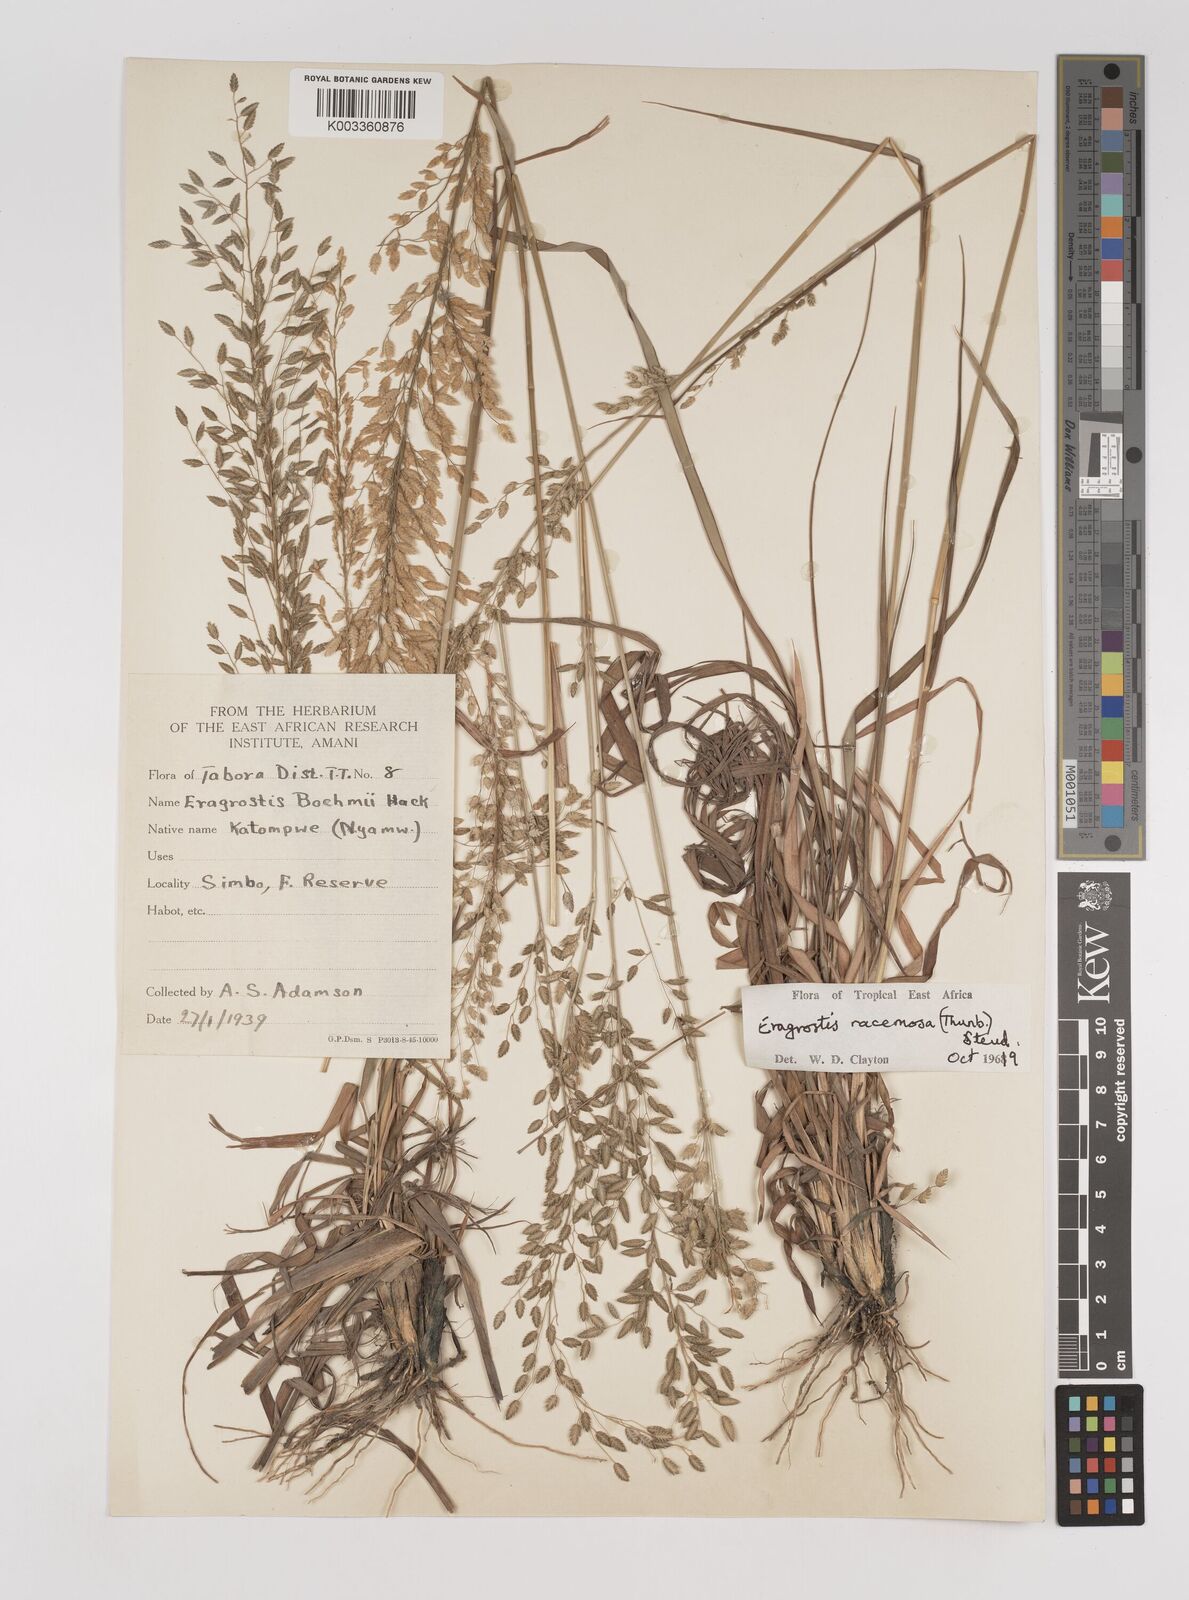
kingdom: Plantae
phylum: Tracheophyta
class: Liliopsida
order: Poales
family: Poaceae
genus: Eragrostis
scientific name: Eragrostis racemosa
